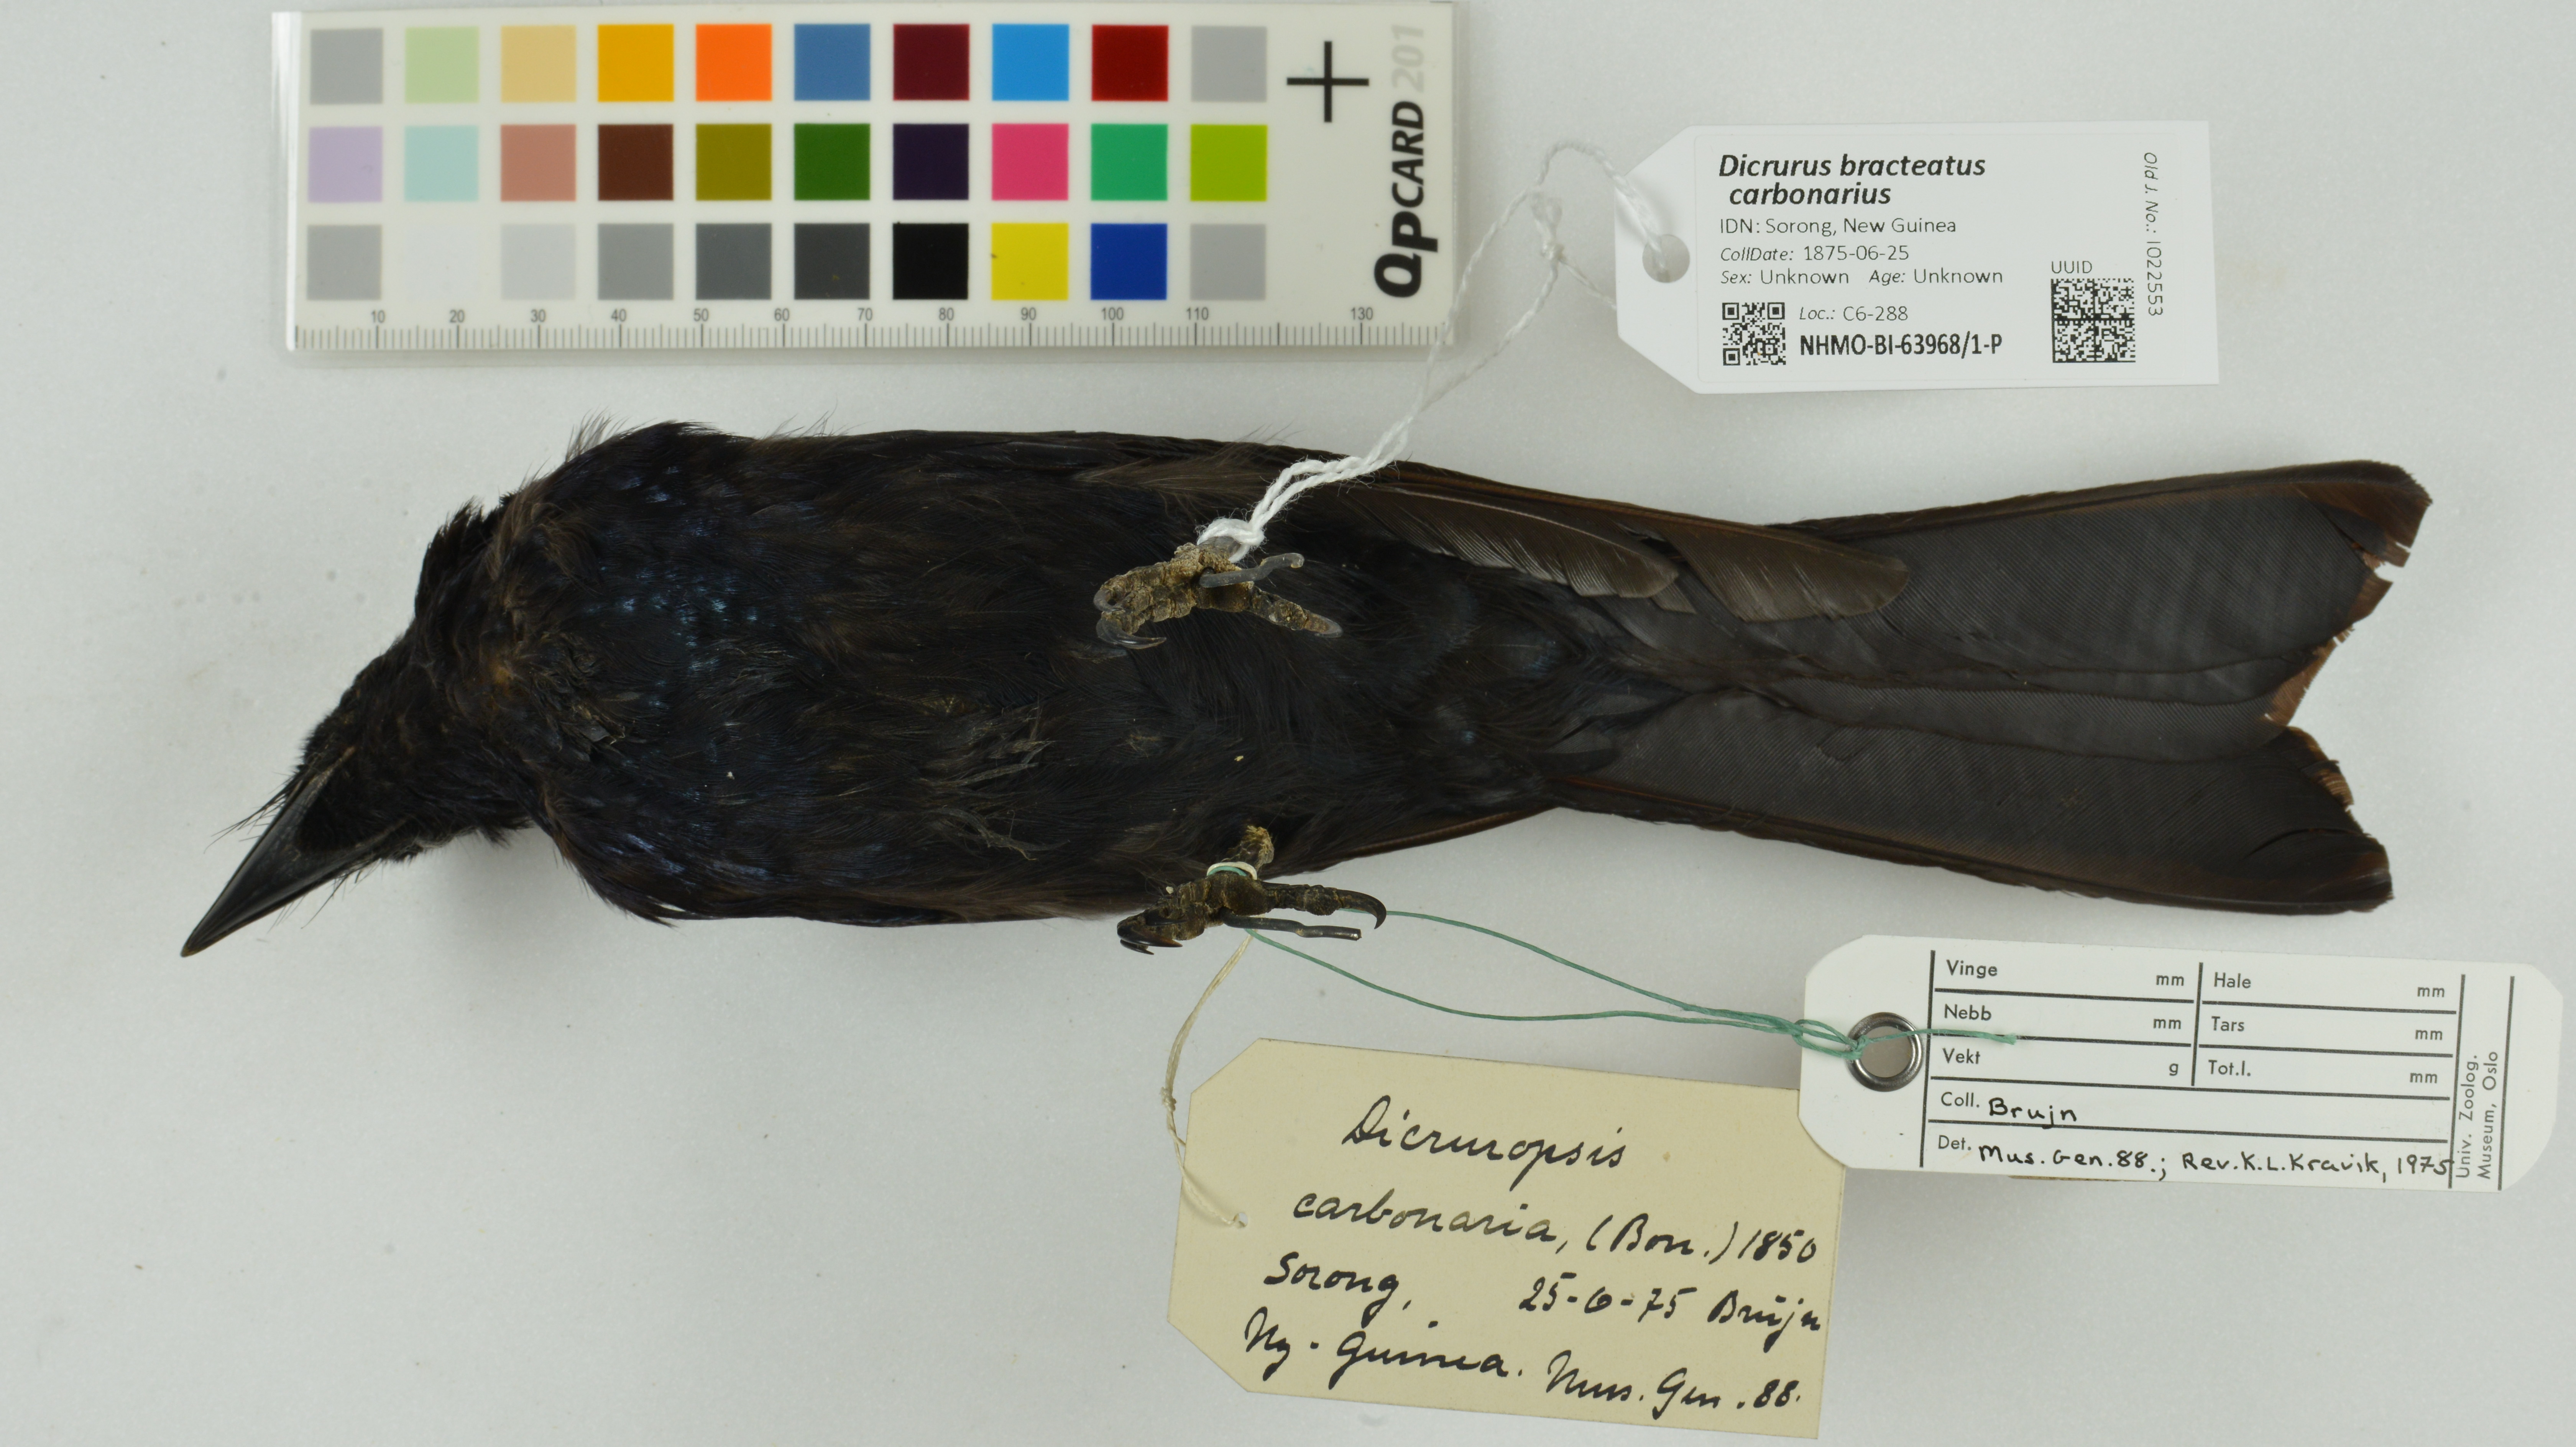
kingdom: Animalia
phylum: Chordata
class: Aves
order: Passeriformes
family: Dicruridae
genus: Dicrurus
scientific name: Dicrurus bracteatus
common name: Spangled drongo
